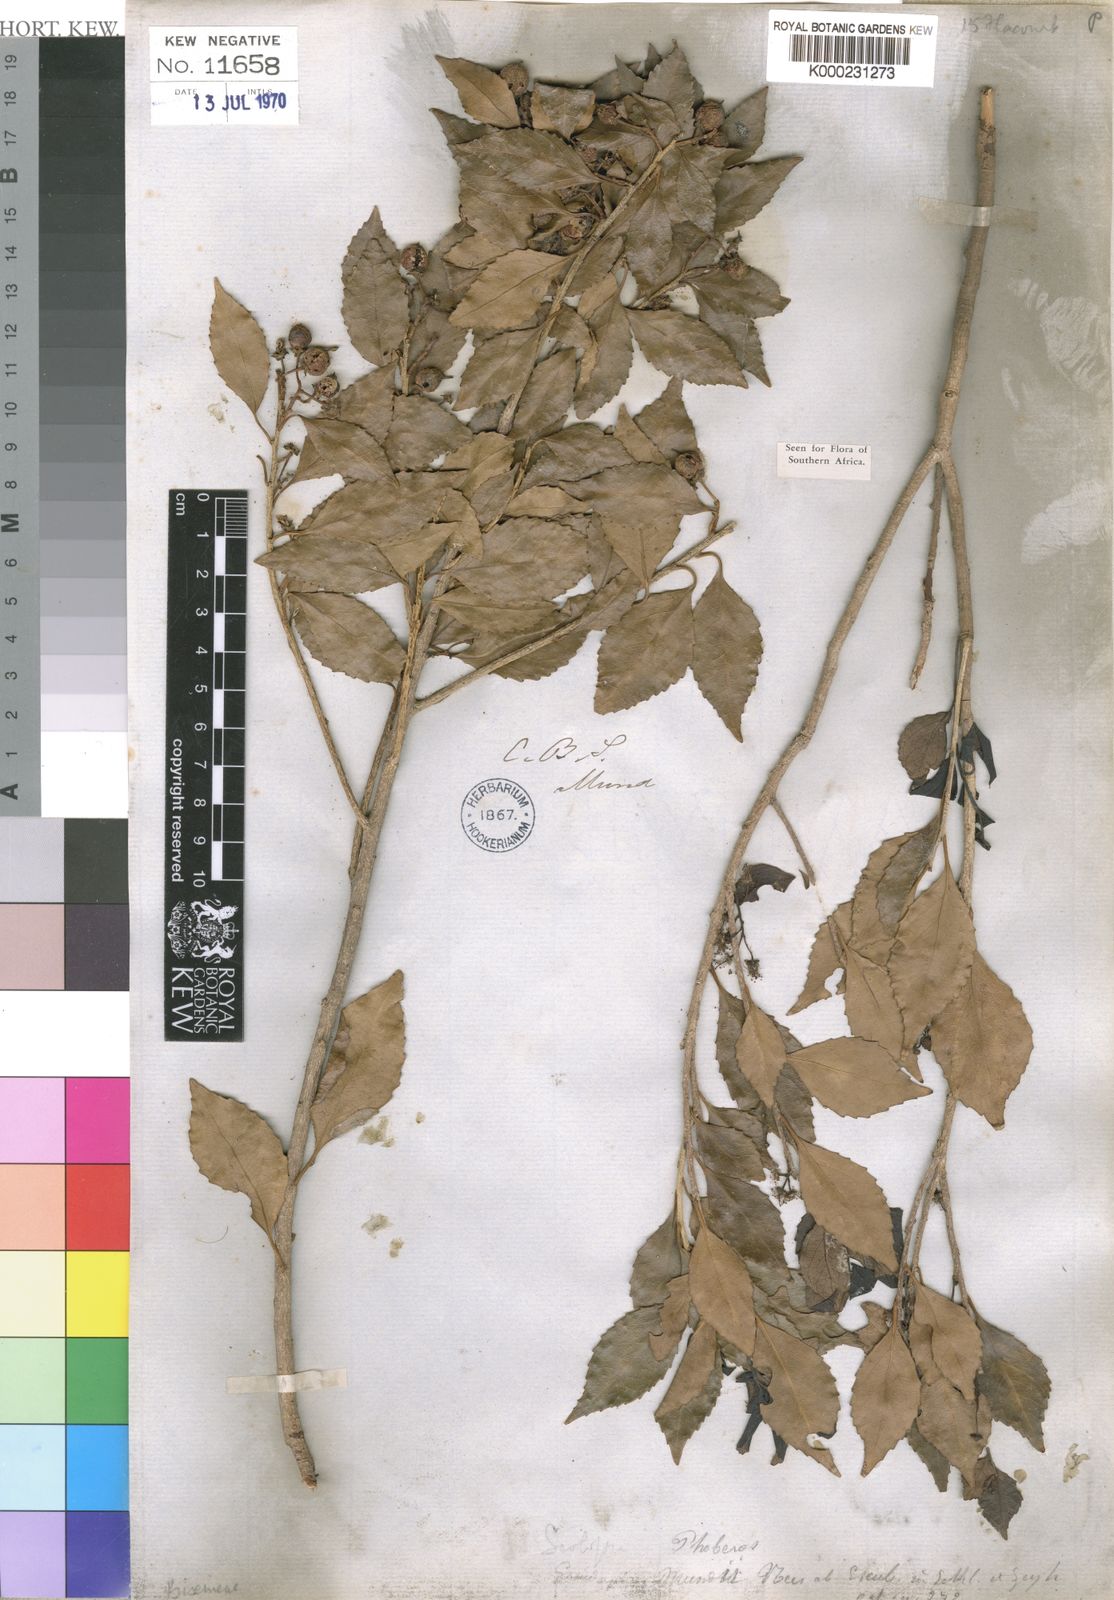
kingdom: Plantae
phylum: Tracheophyta
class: Magnoliopsida
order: Malpighiales
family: Salicaceae
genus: Scolopia
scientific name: Scolopia mundii
